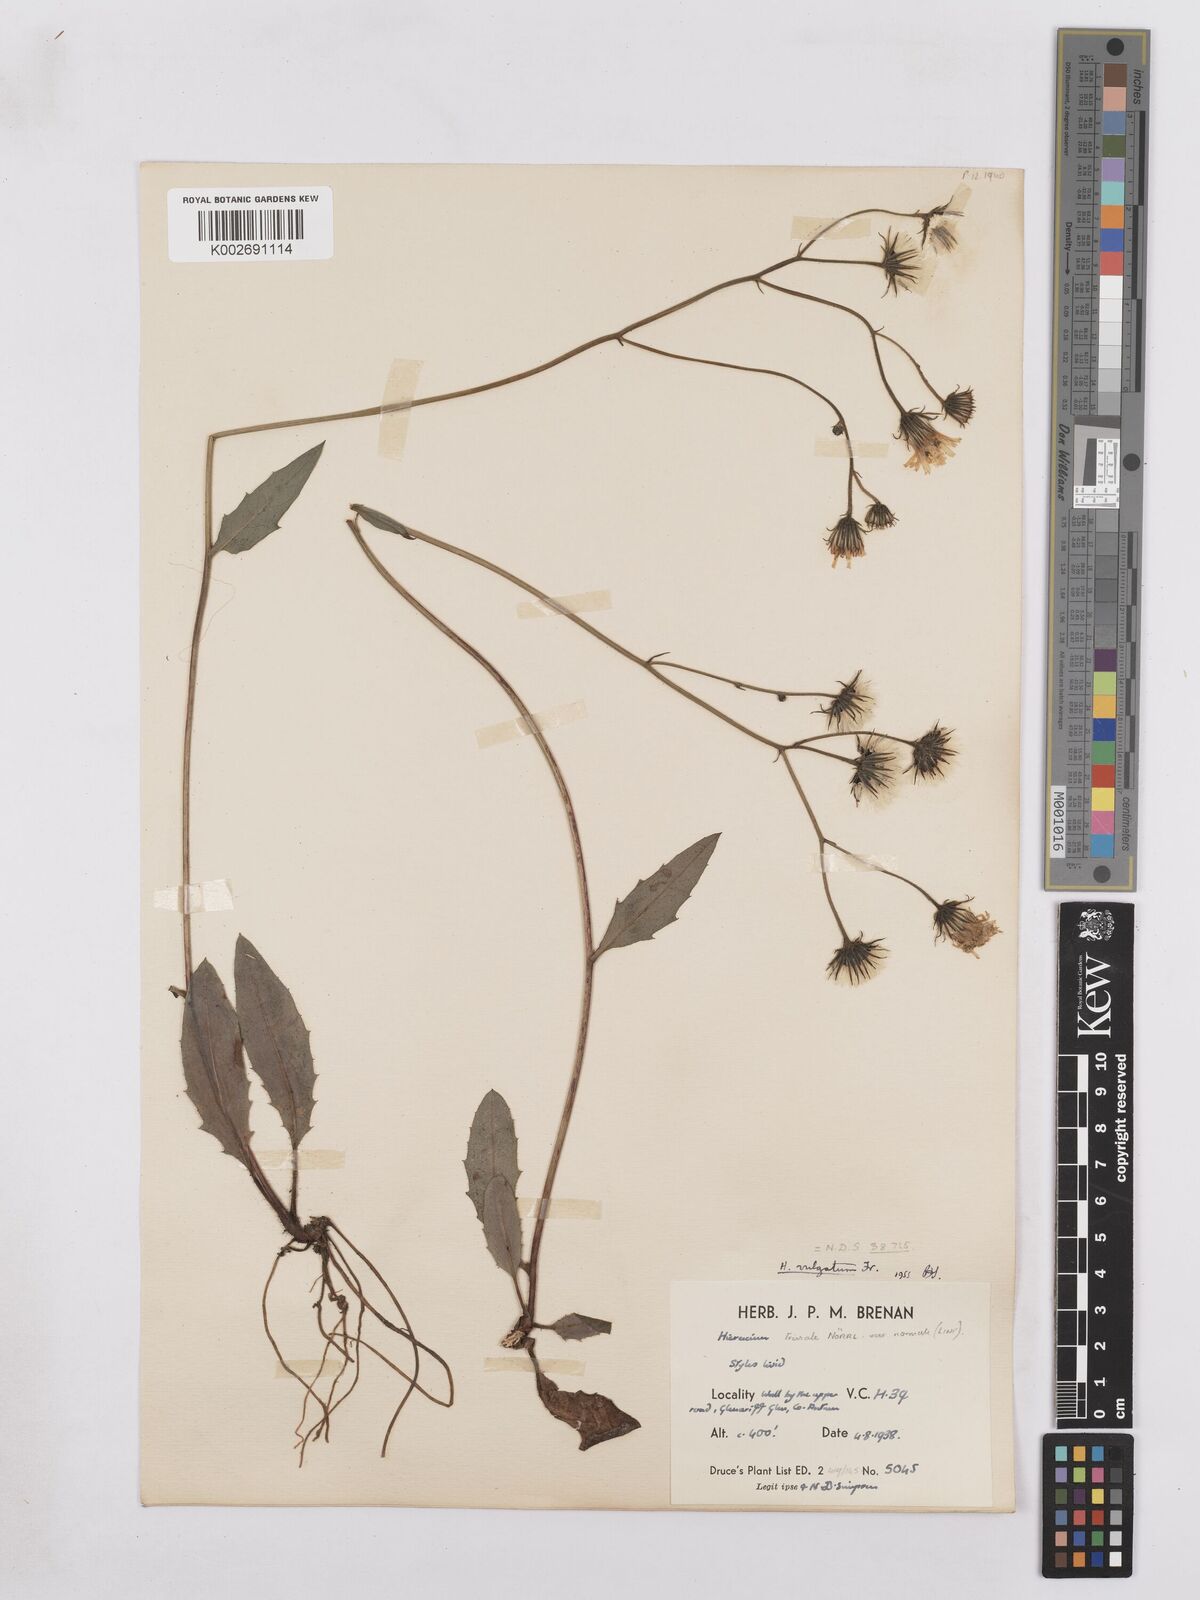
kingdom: Plantae
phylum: Tracheophyta
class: Magnoliopsida
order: Asterales
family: Asteraceae
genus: Hieracium
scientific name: Hieracium lachenalii
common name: Common hawkweed
